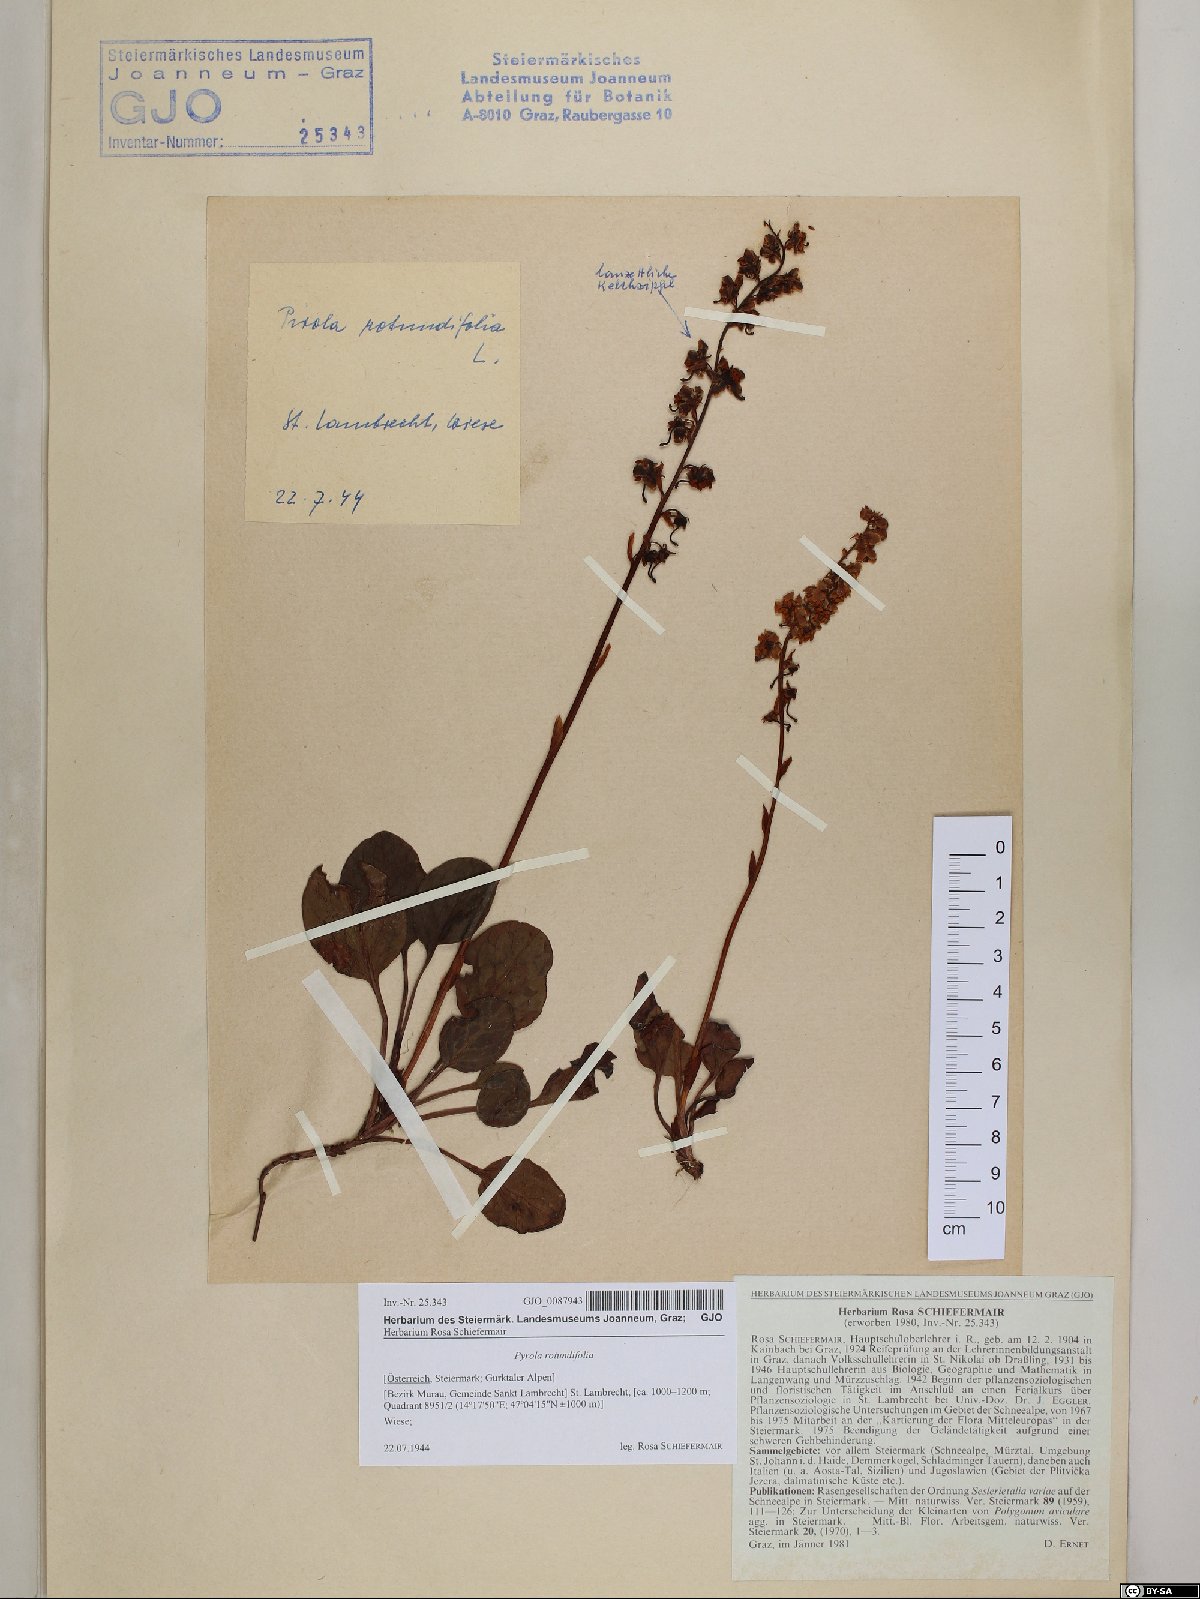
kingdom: Plantae
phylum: Tracheophyta
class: Magnoliopsida
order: Ericales
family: Ericaceae
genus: Pyrola
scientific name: Pyrola rotundifolia
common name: Round-leaved wintergreen
